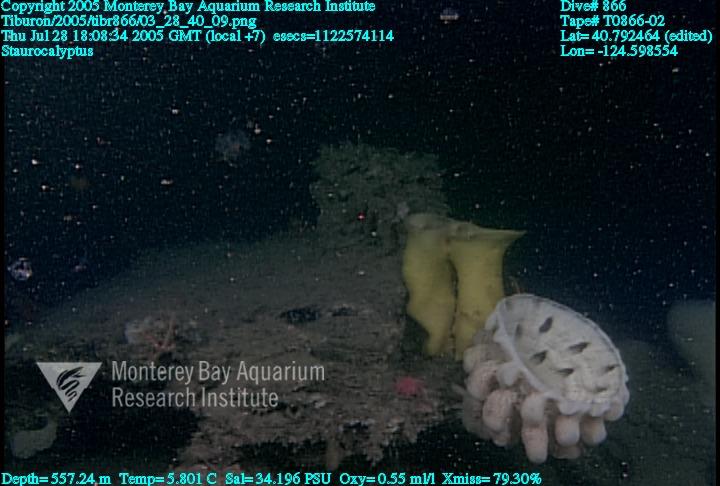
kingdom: Animalia
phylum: Porifera
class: Hexactinellida
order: Lyssacinosida
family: Rossellidae
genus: Staurocalyptus
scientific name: Staurocalyptus
